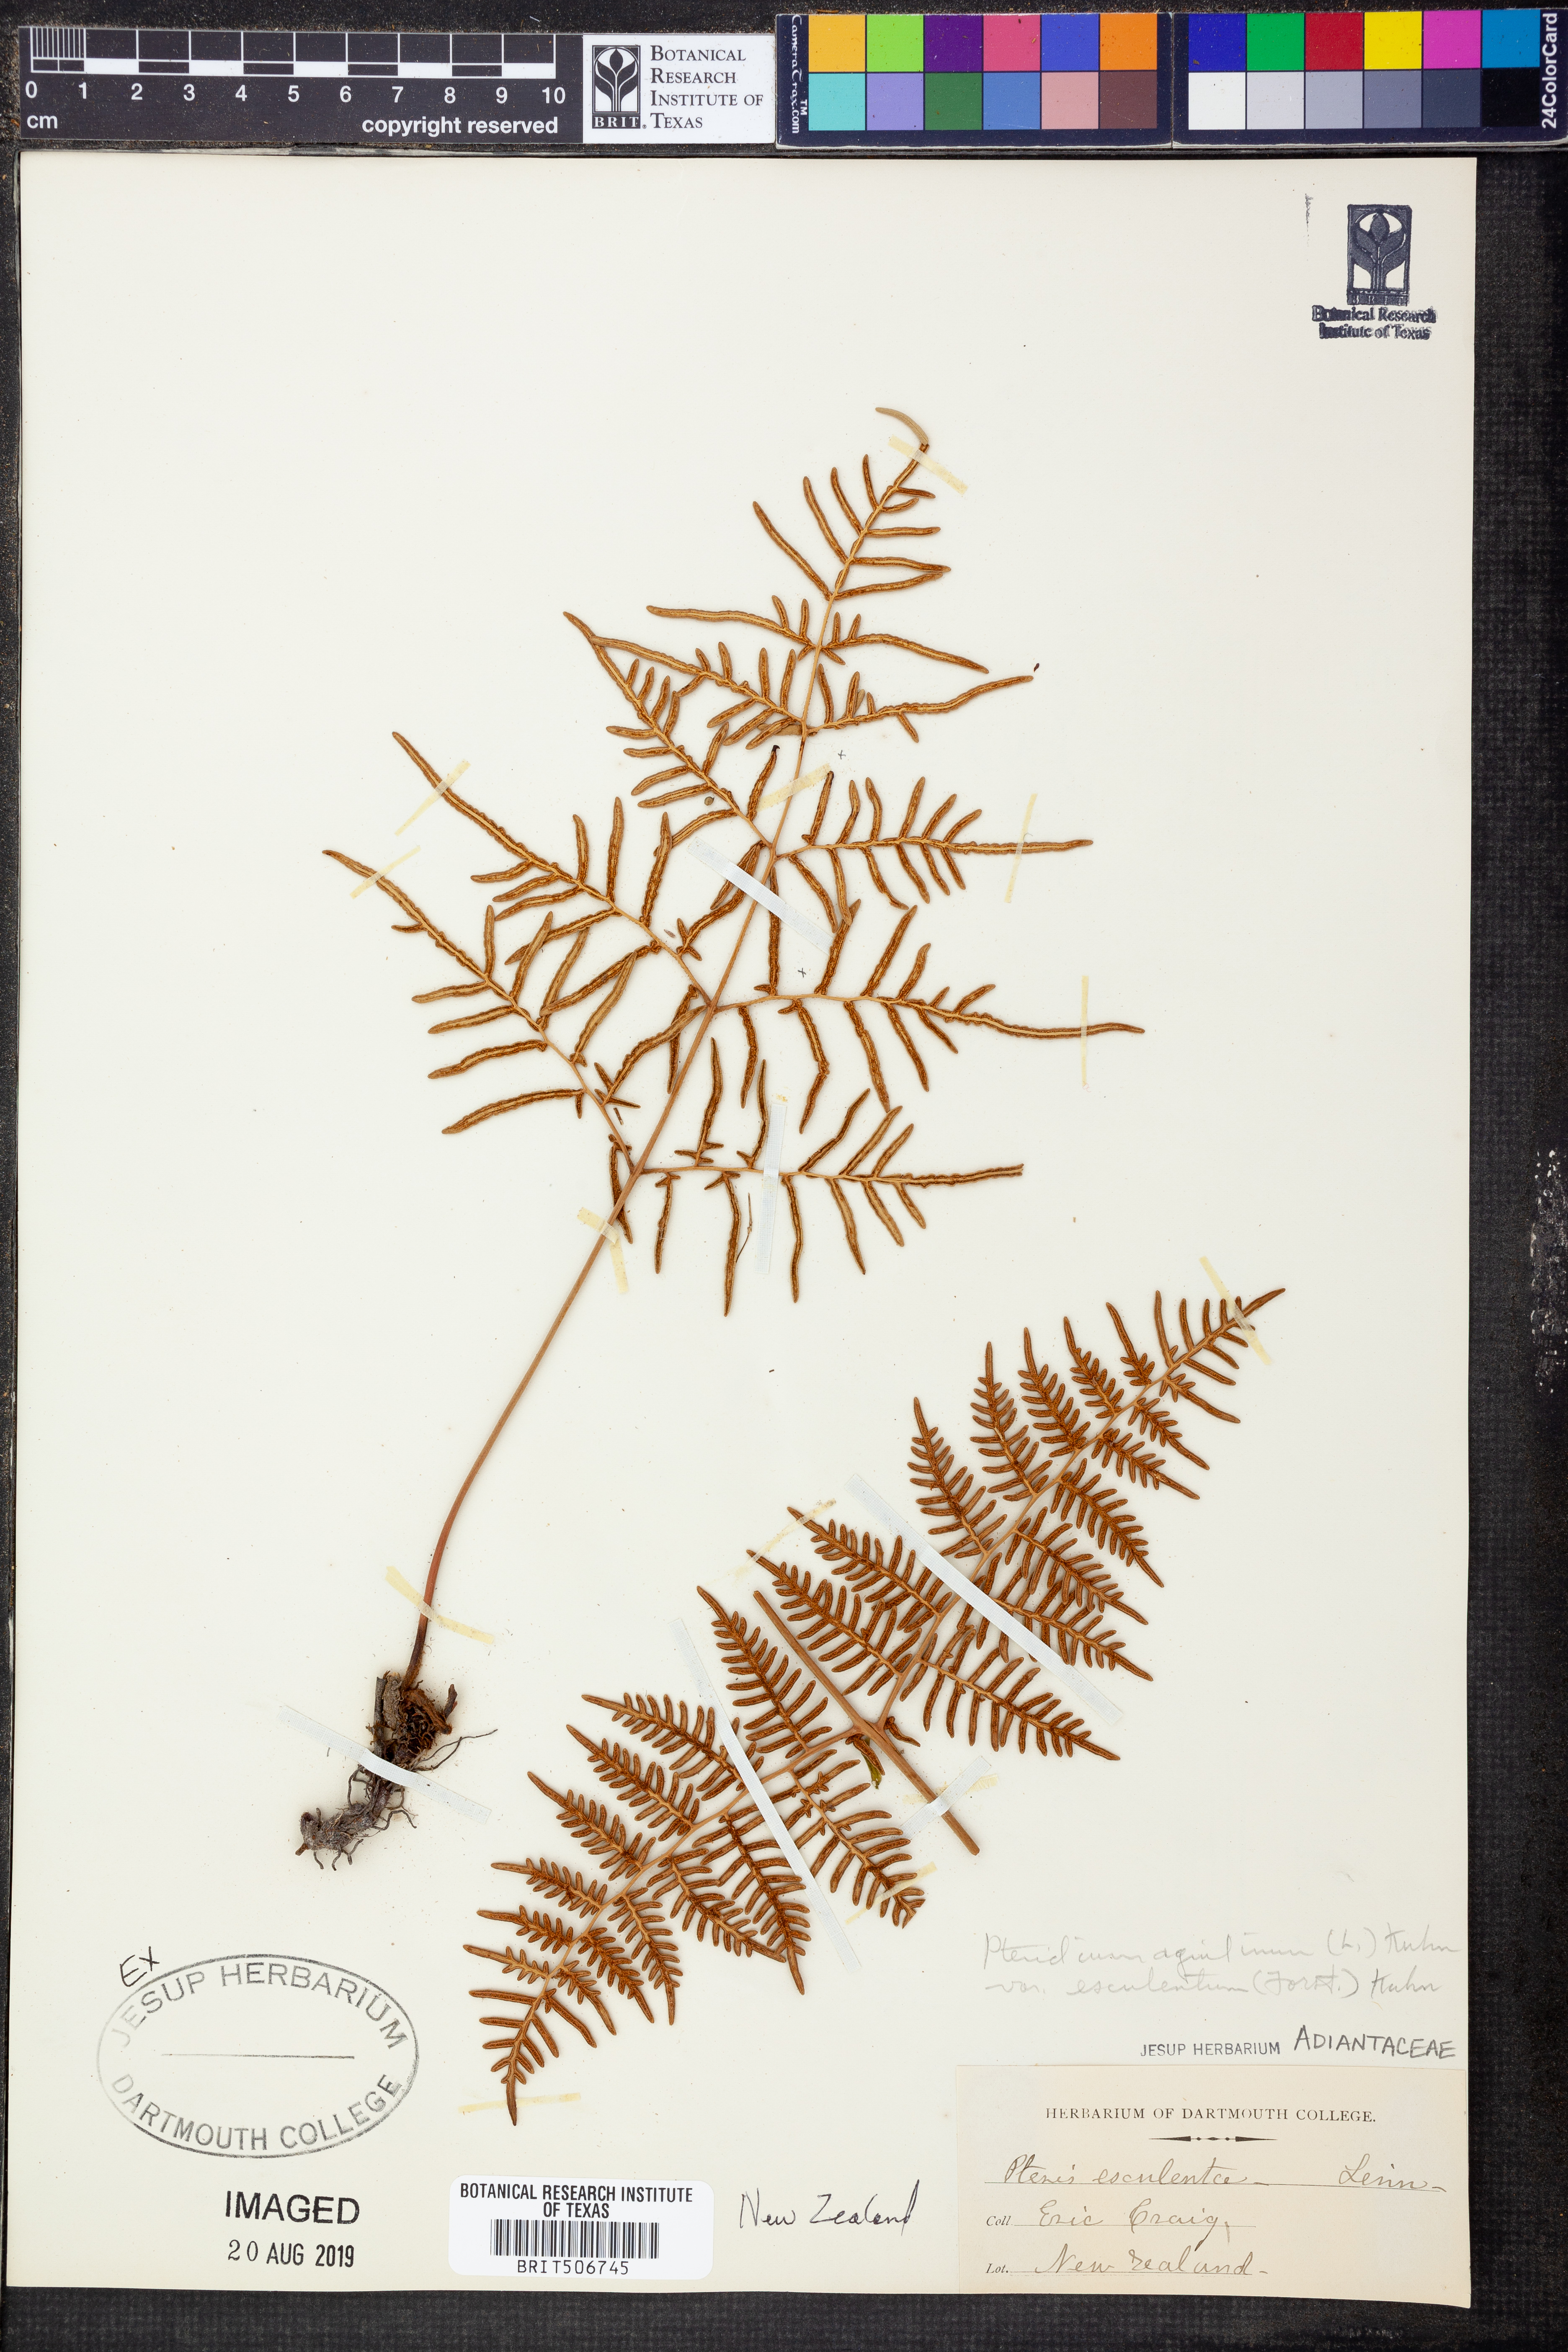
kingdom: Plantae
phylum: Tracheophyta
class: Polypodiopsida
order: Polypodiales
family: Dennstaedtiaceae
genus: Pteridium
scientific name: Pteridium esculentum
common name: Bracken fern
